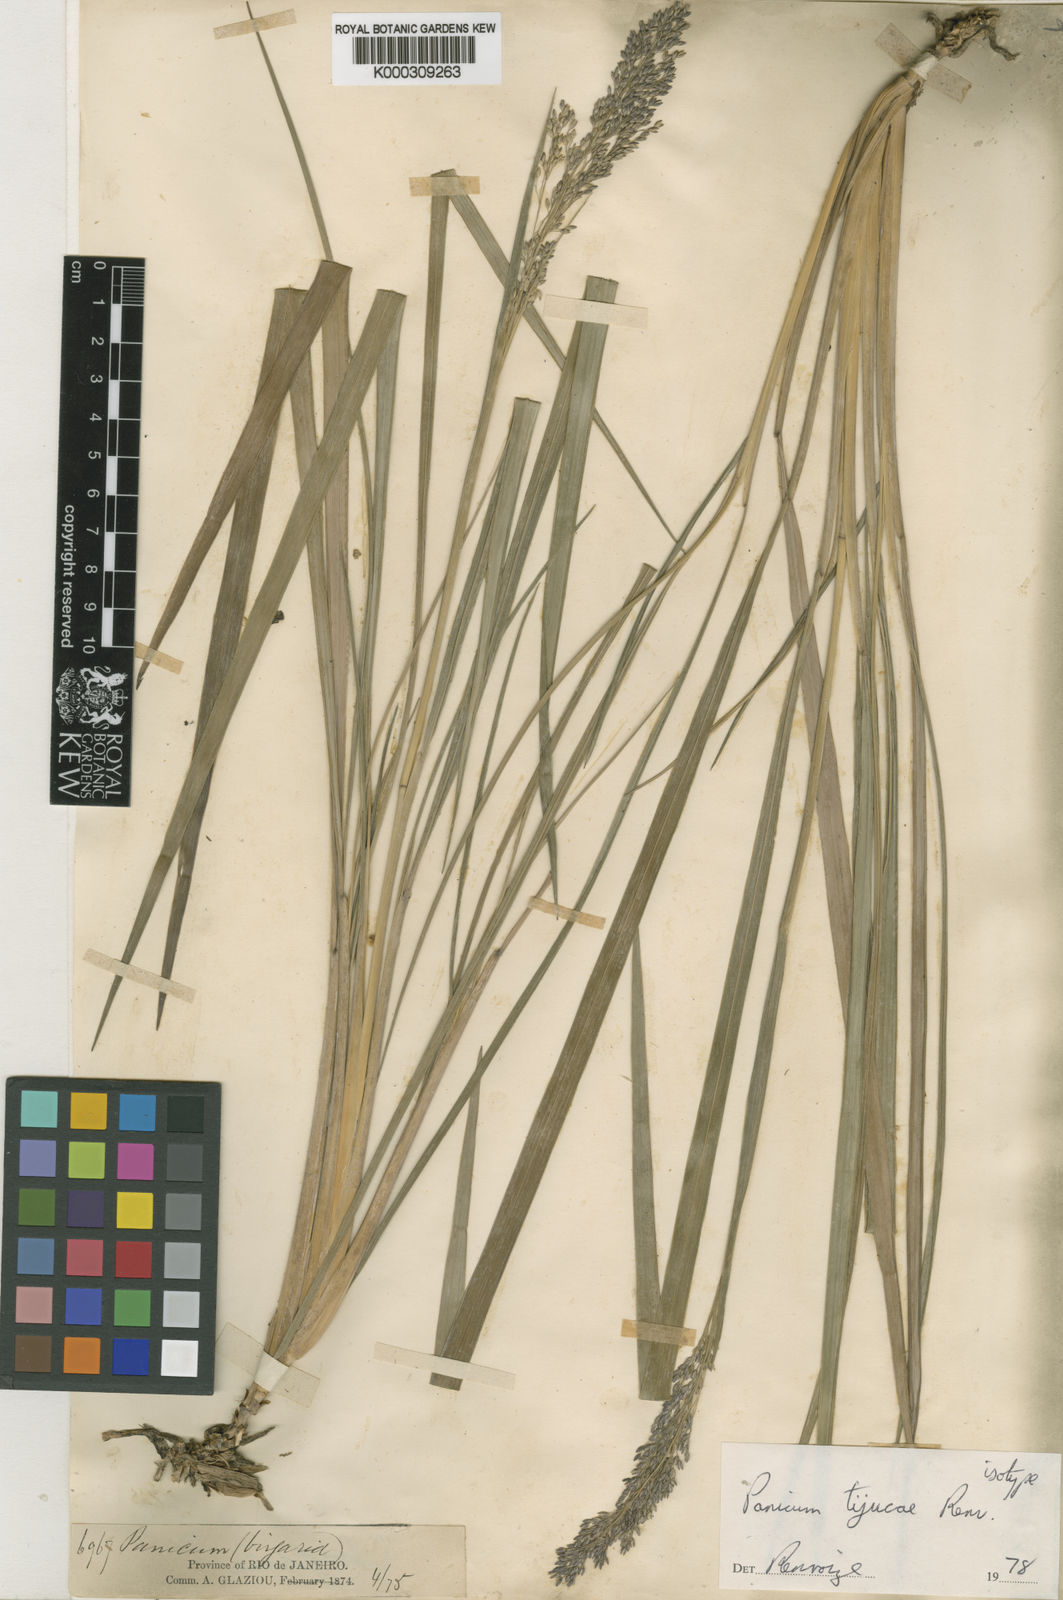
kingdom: Plantae
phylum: Tracheophyta
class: Liliopsida
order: Poales
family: Poaceae
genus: Apochloa
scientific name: Apochloa tijucae
